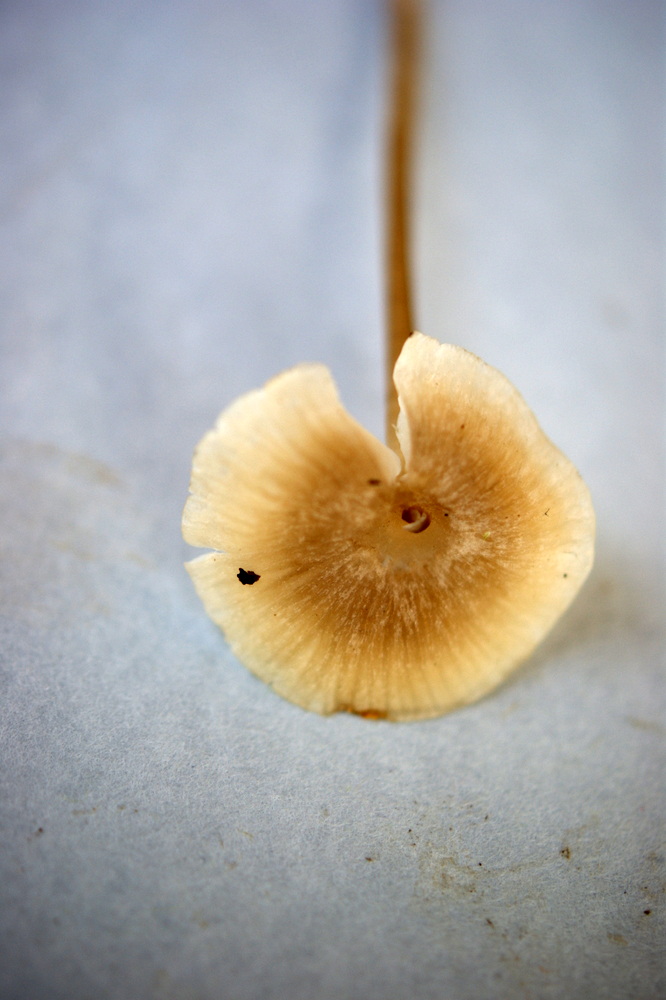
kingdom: Fungi
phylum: Basidiomycota
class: Agaricomycetes
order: Agaricales
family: Lyophyllaceae
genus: Sphagnurus
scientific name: Sphagnurus paluster
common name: tørvemos-gråblad
